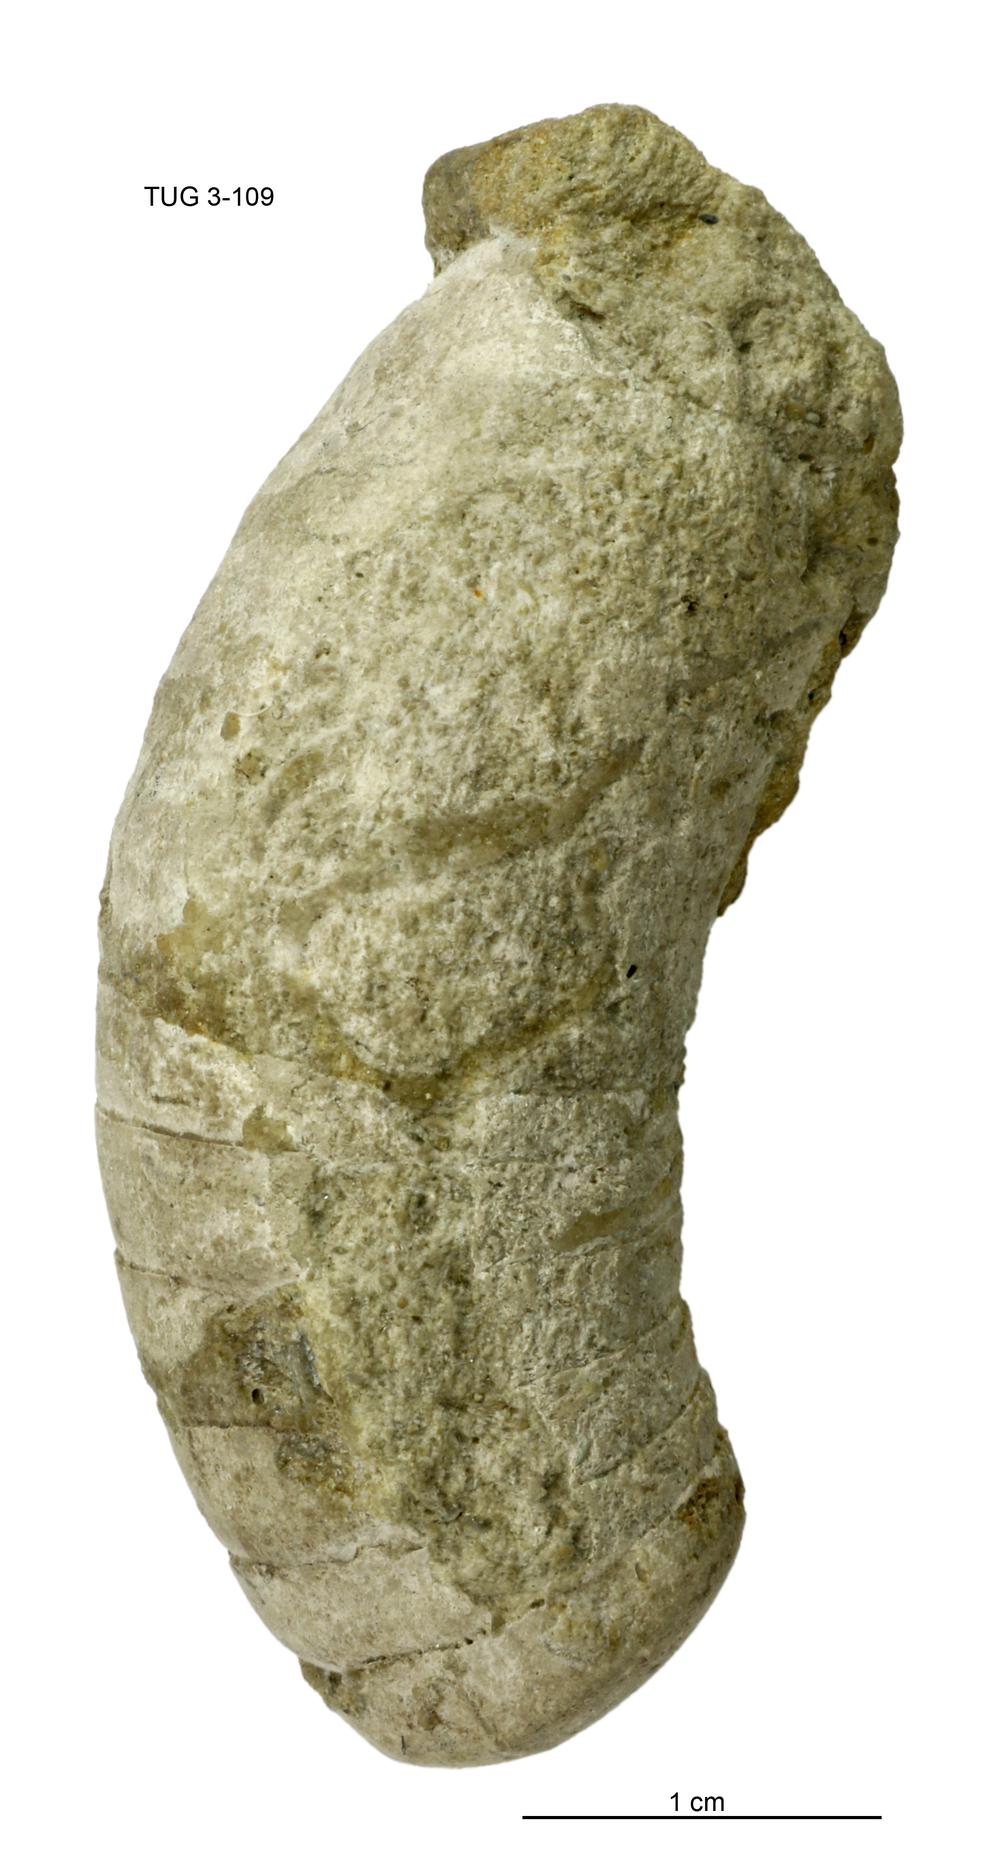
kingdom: Animalia
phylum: Mollusca
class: Cephalopoda
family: Estonioceratidae
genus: Tragoceras
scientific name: Tragoceras
